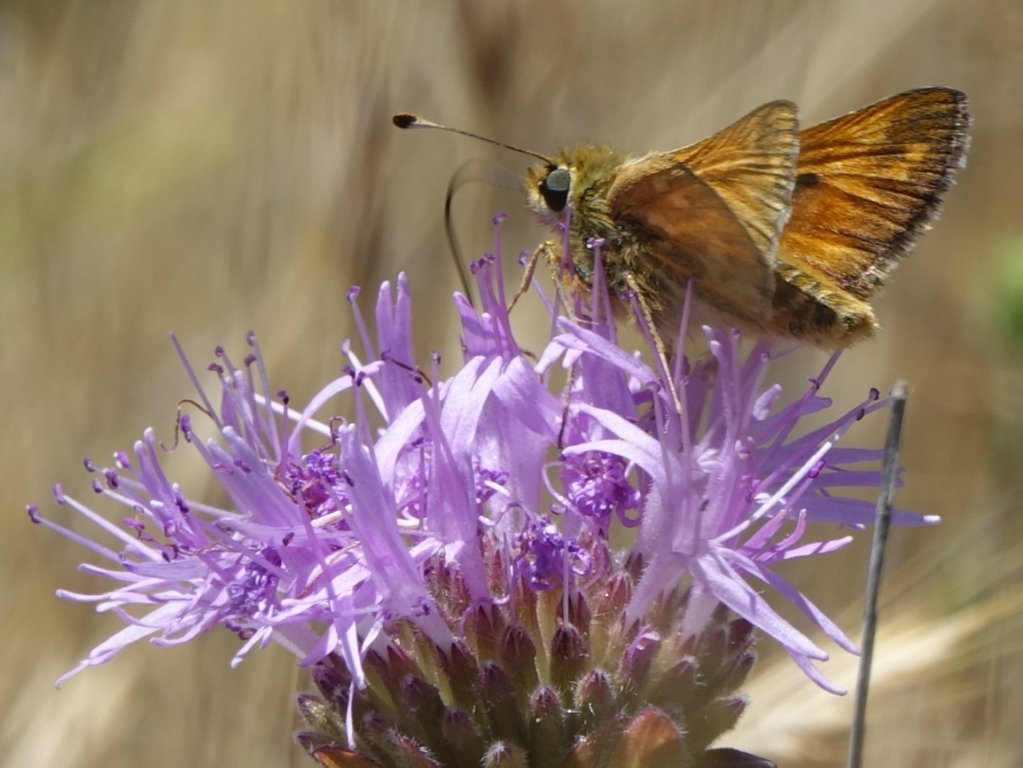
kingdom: Animalia
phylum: Arthropoda
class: Insecta
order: Lepidoptera
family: Hesperiidae
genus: Hesperia
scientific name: Hesperia lindseyi
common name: Lindsey's Skipper
